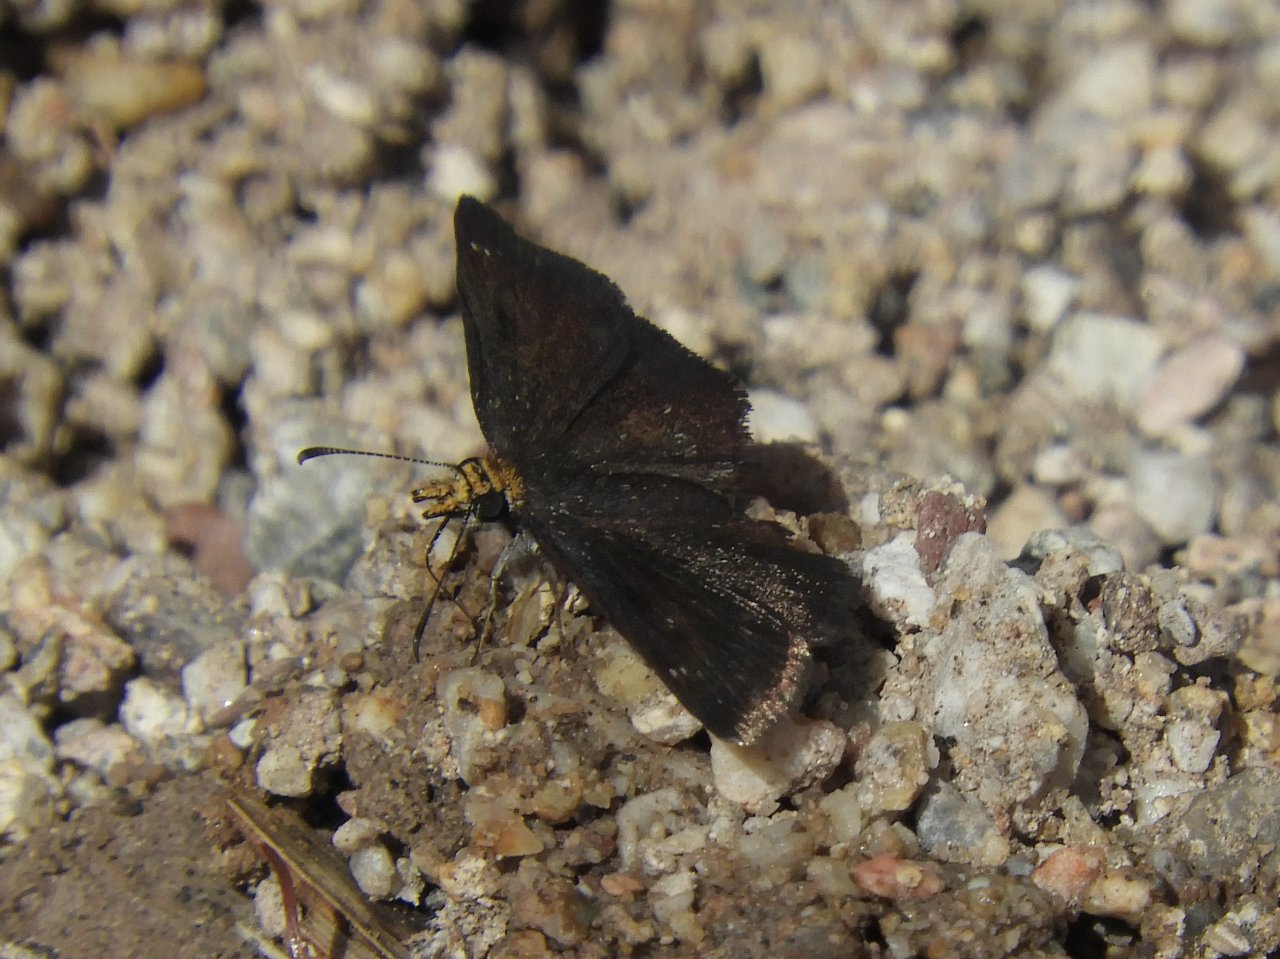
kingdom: Animalia
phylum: Arthropoda
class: Insecta
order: Lepidoptera
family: Hesperiidae
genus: Staphylus
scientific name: Staphylus ceos
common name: Golden-headed Scallopwing
